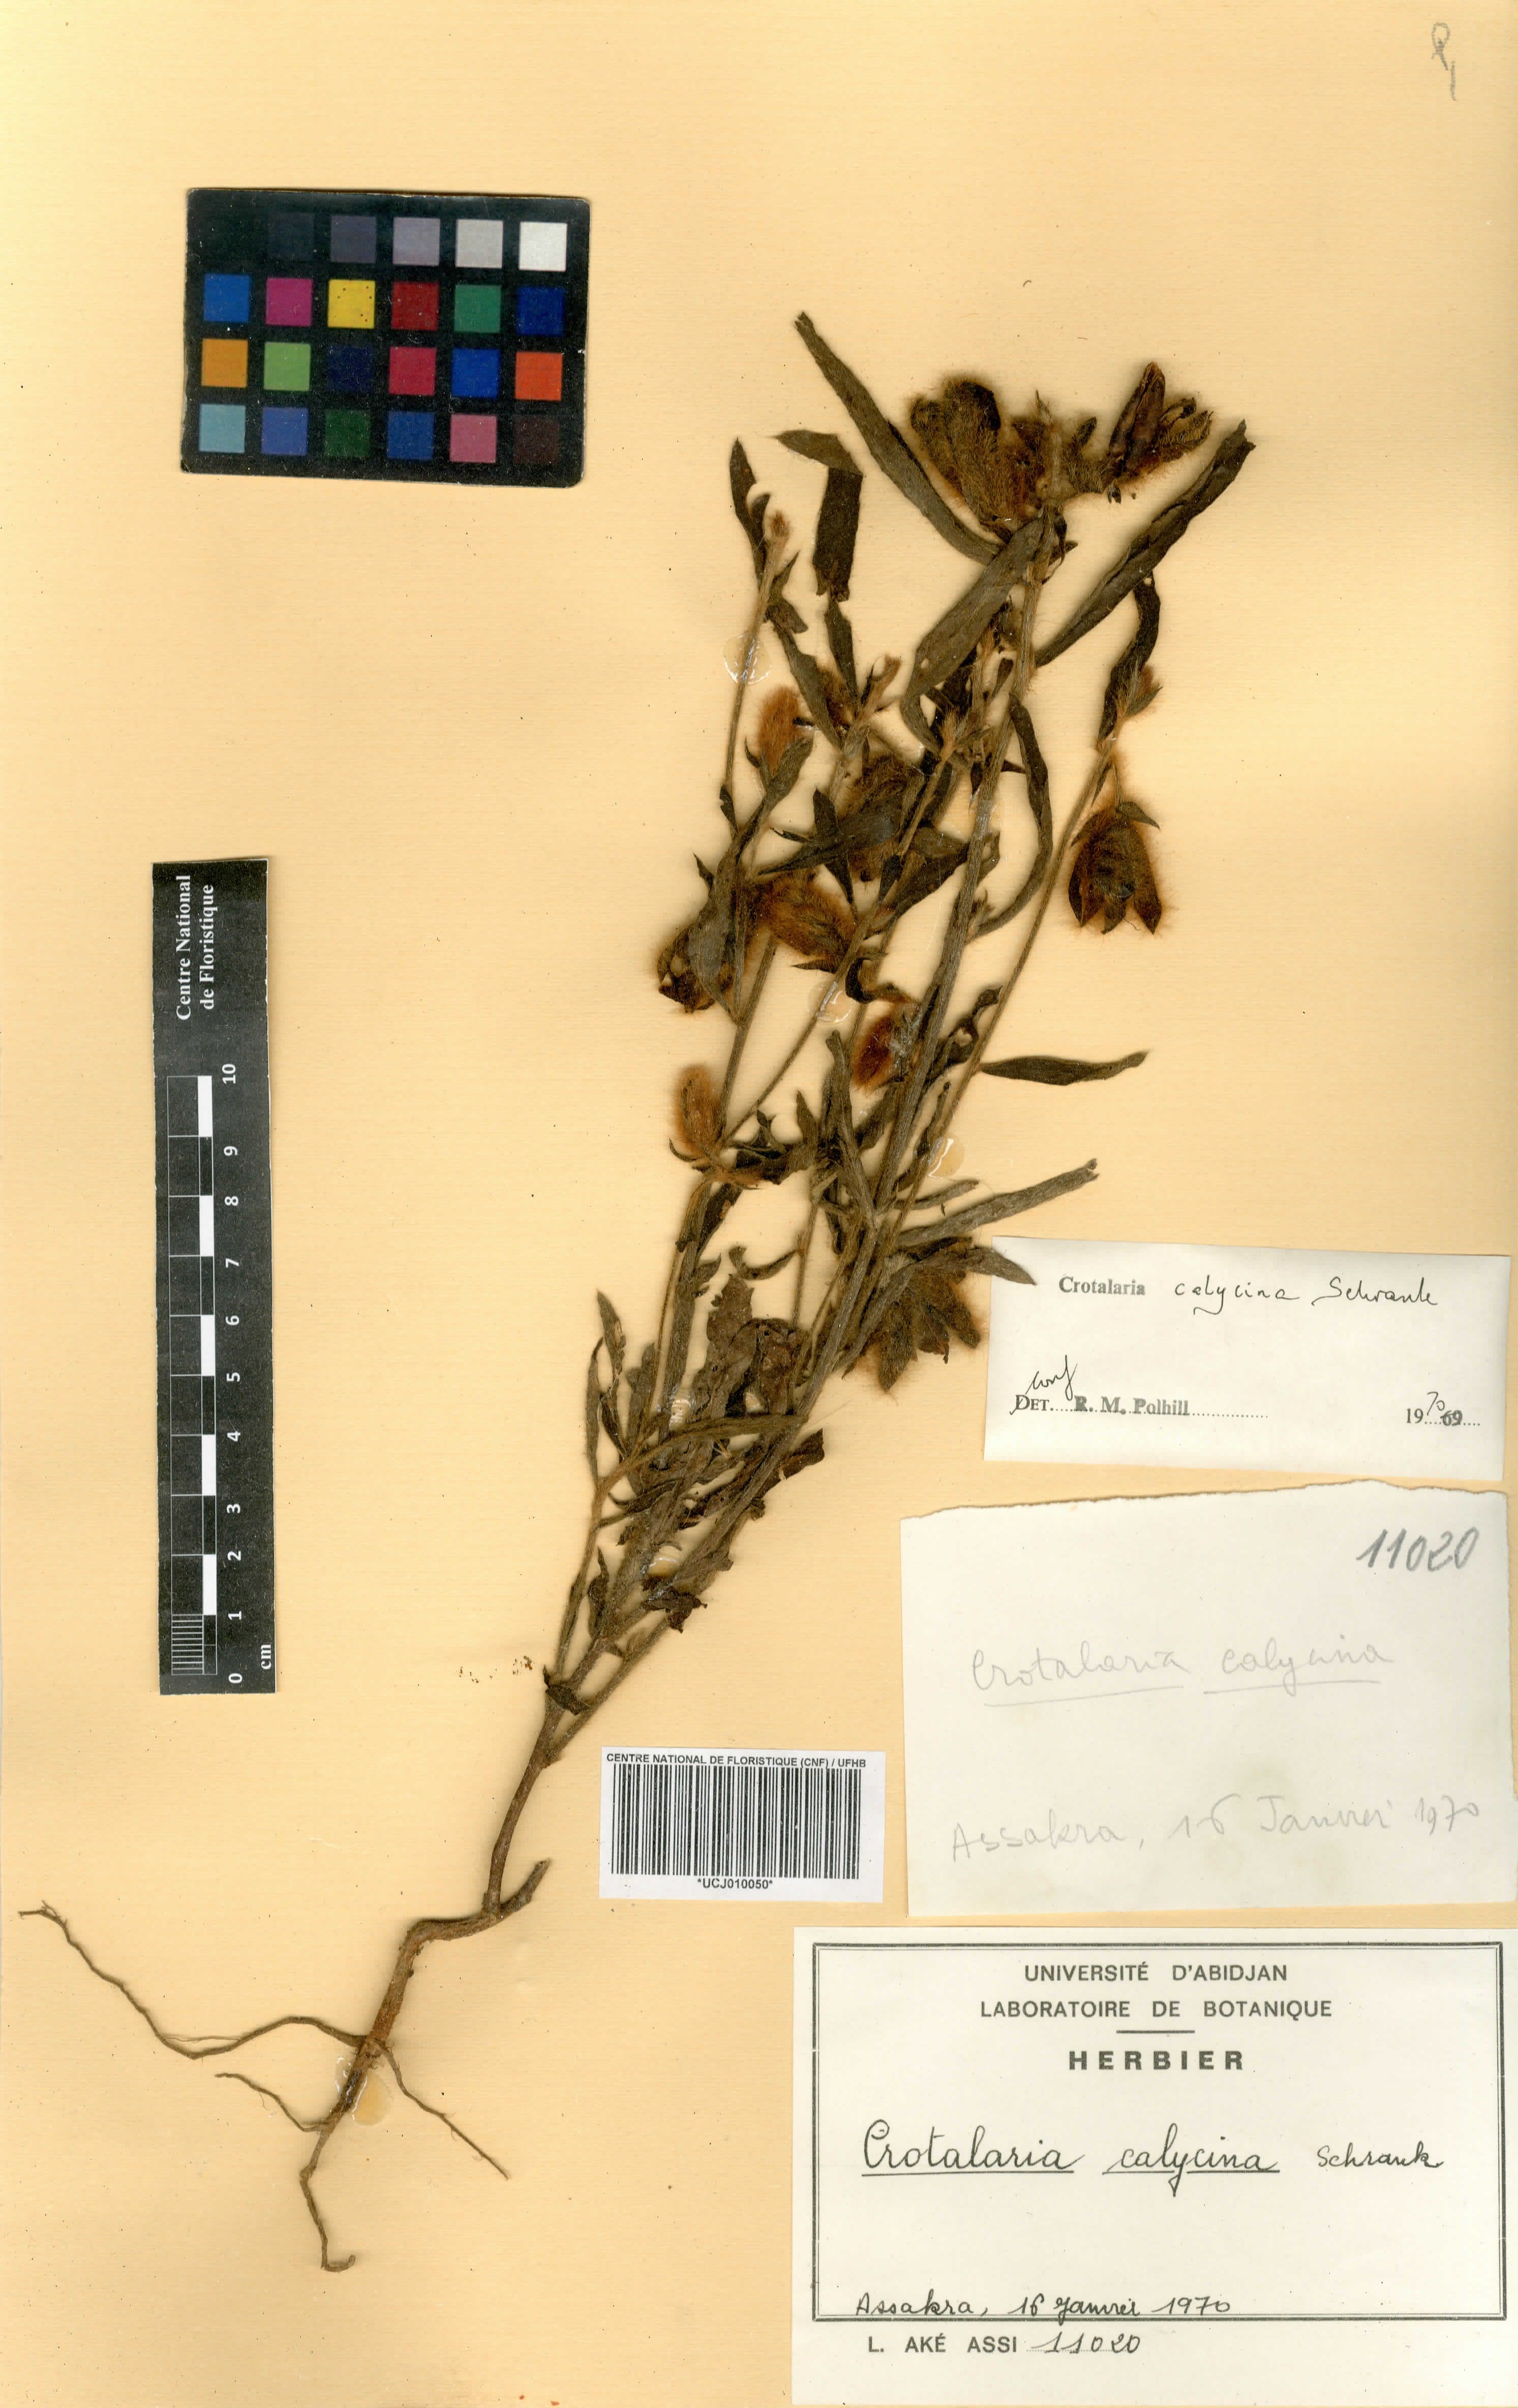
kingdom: Plantae
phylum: Tracheophyta
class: Magnoliopsida
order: Fabales
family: Fabaceae
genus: Crotalaria
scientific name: Crotalaria calycina
